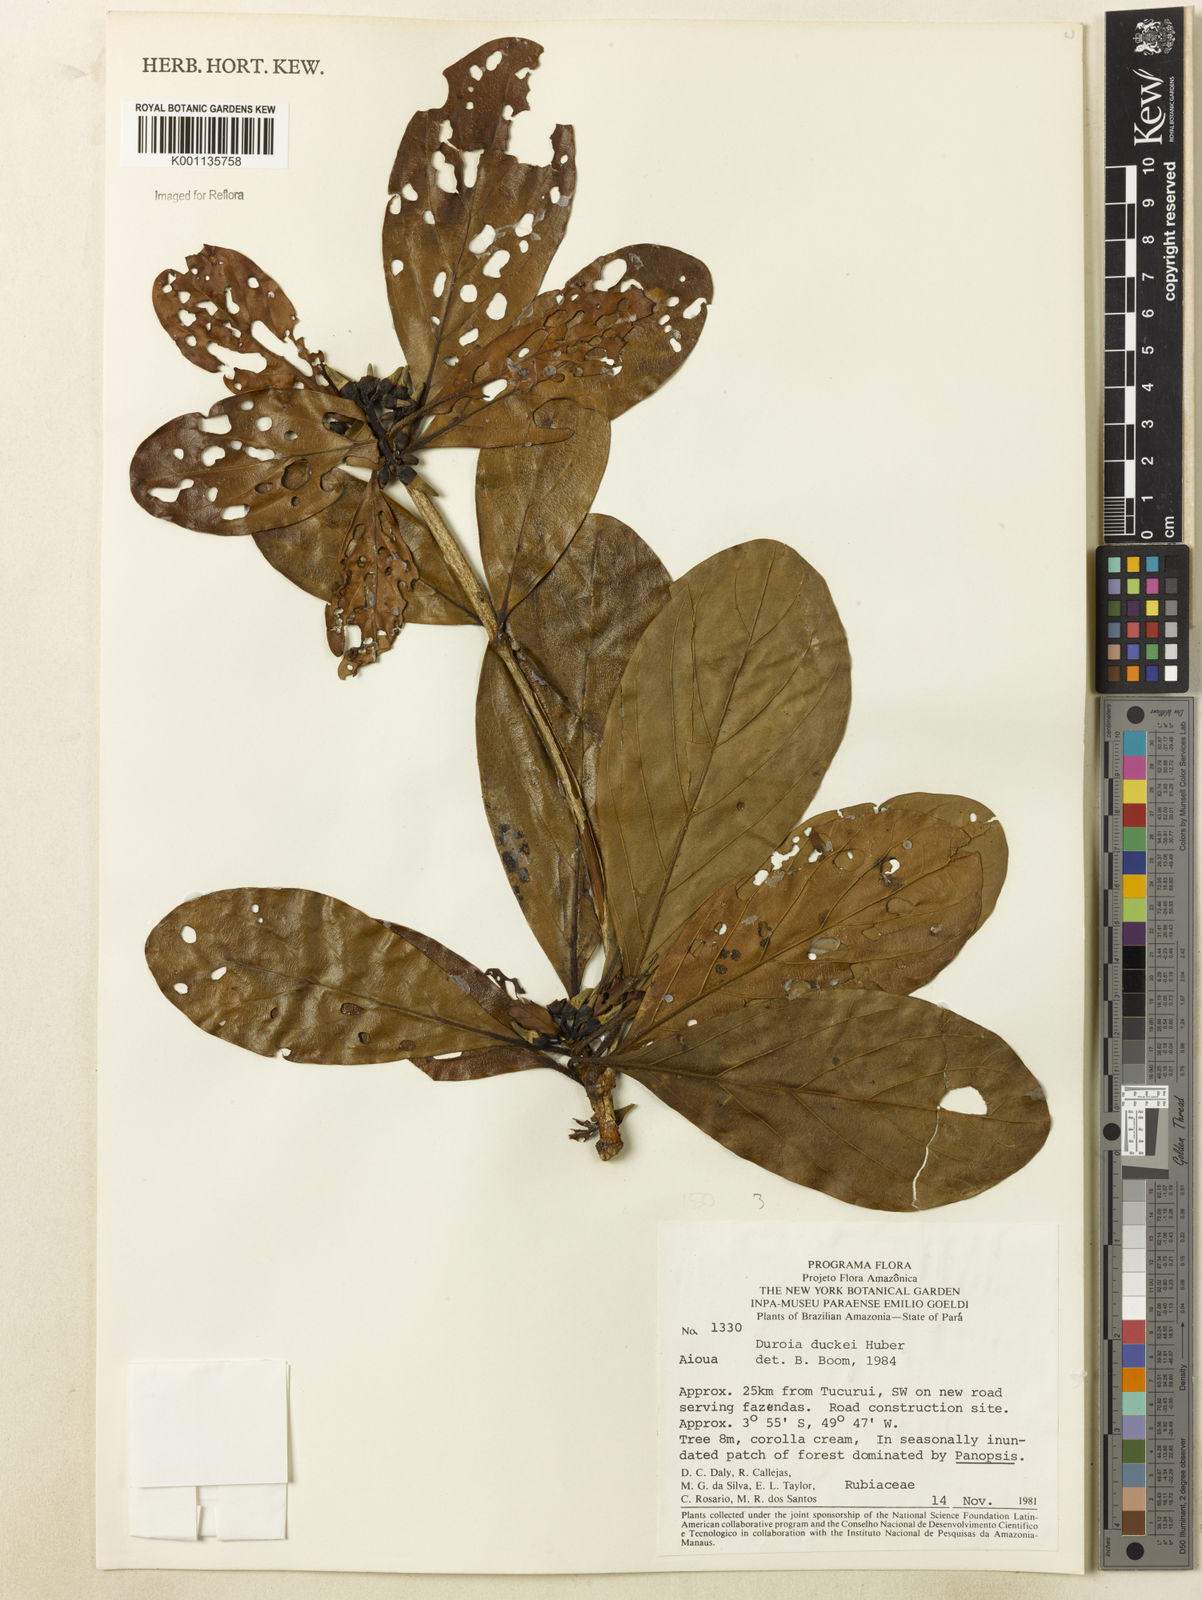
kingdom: Plantae
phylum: Tracheophyta
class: Magnoliopsida
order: Gentianales
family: Rubiaceae
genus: Duroia
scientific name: Duroia duckei
